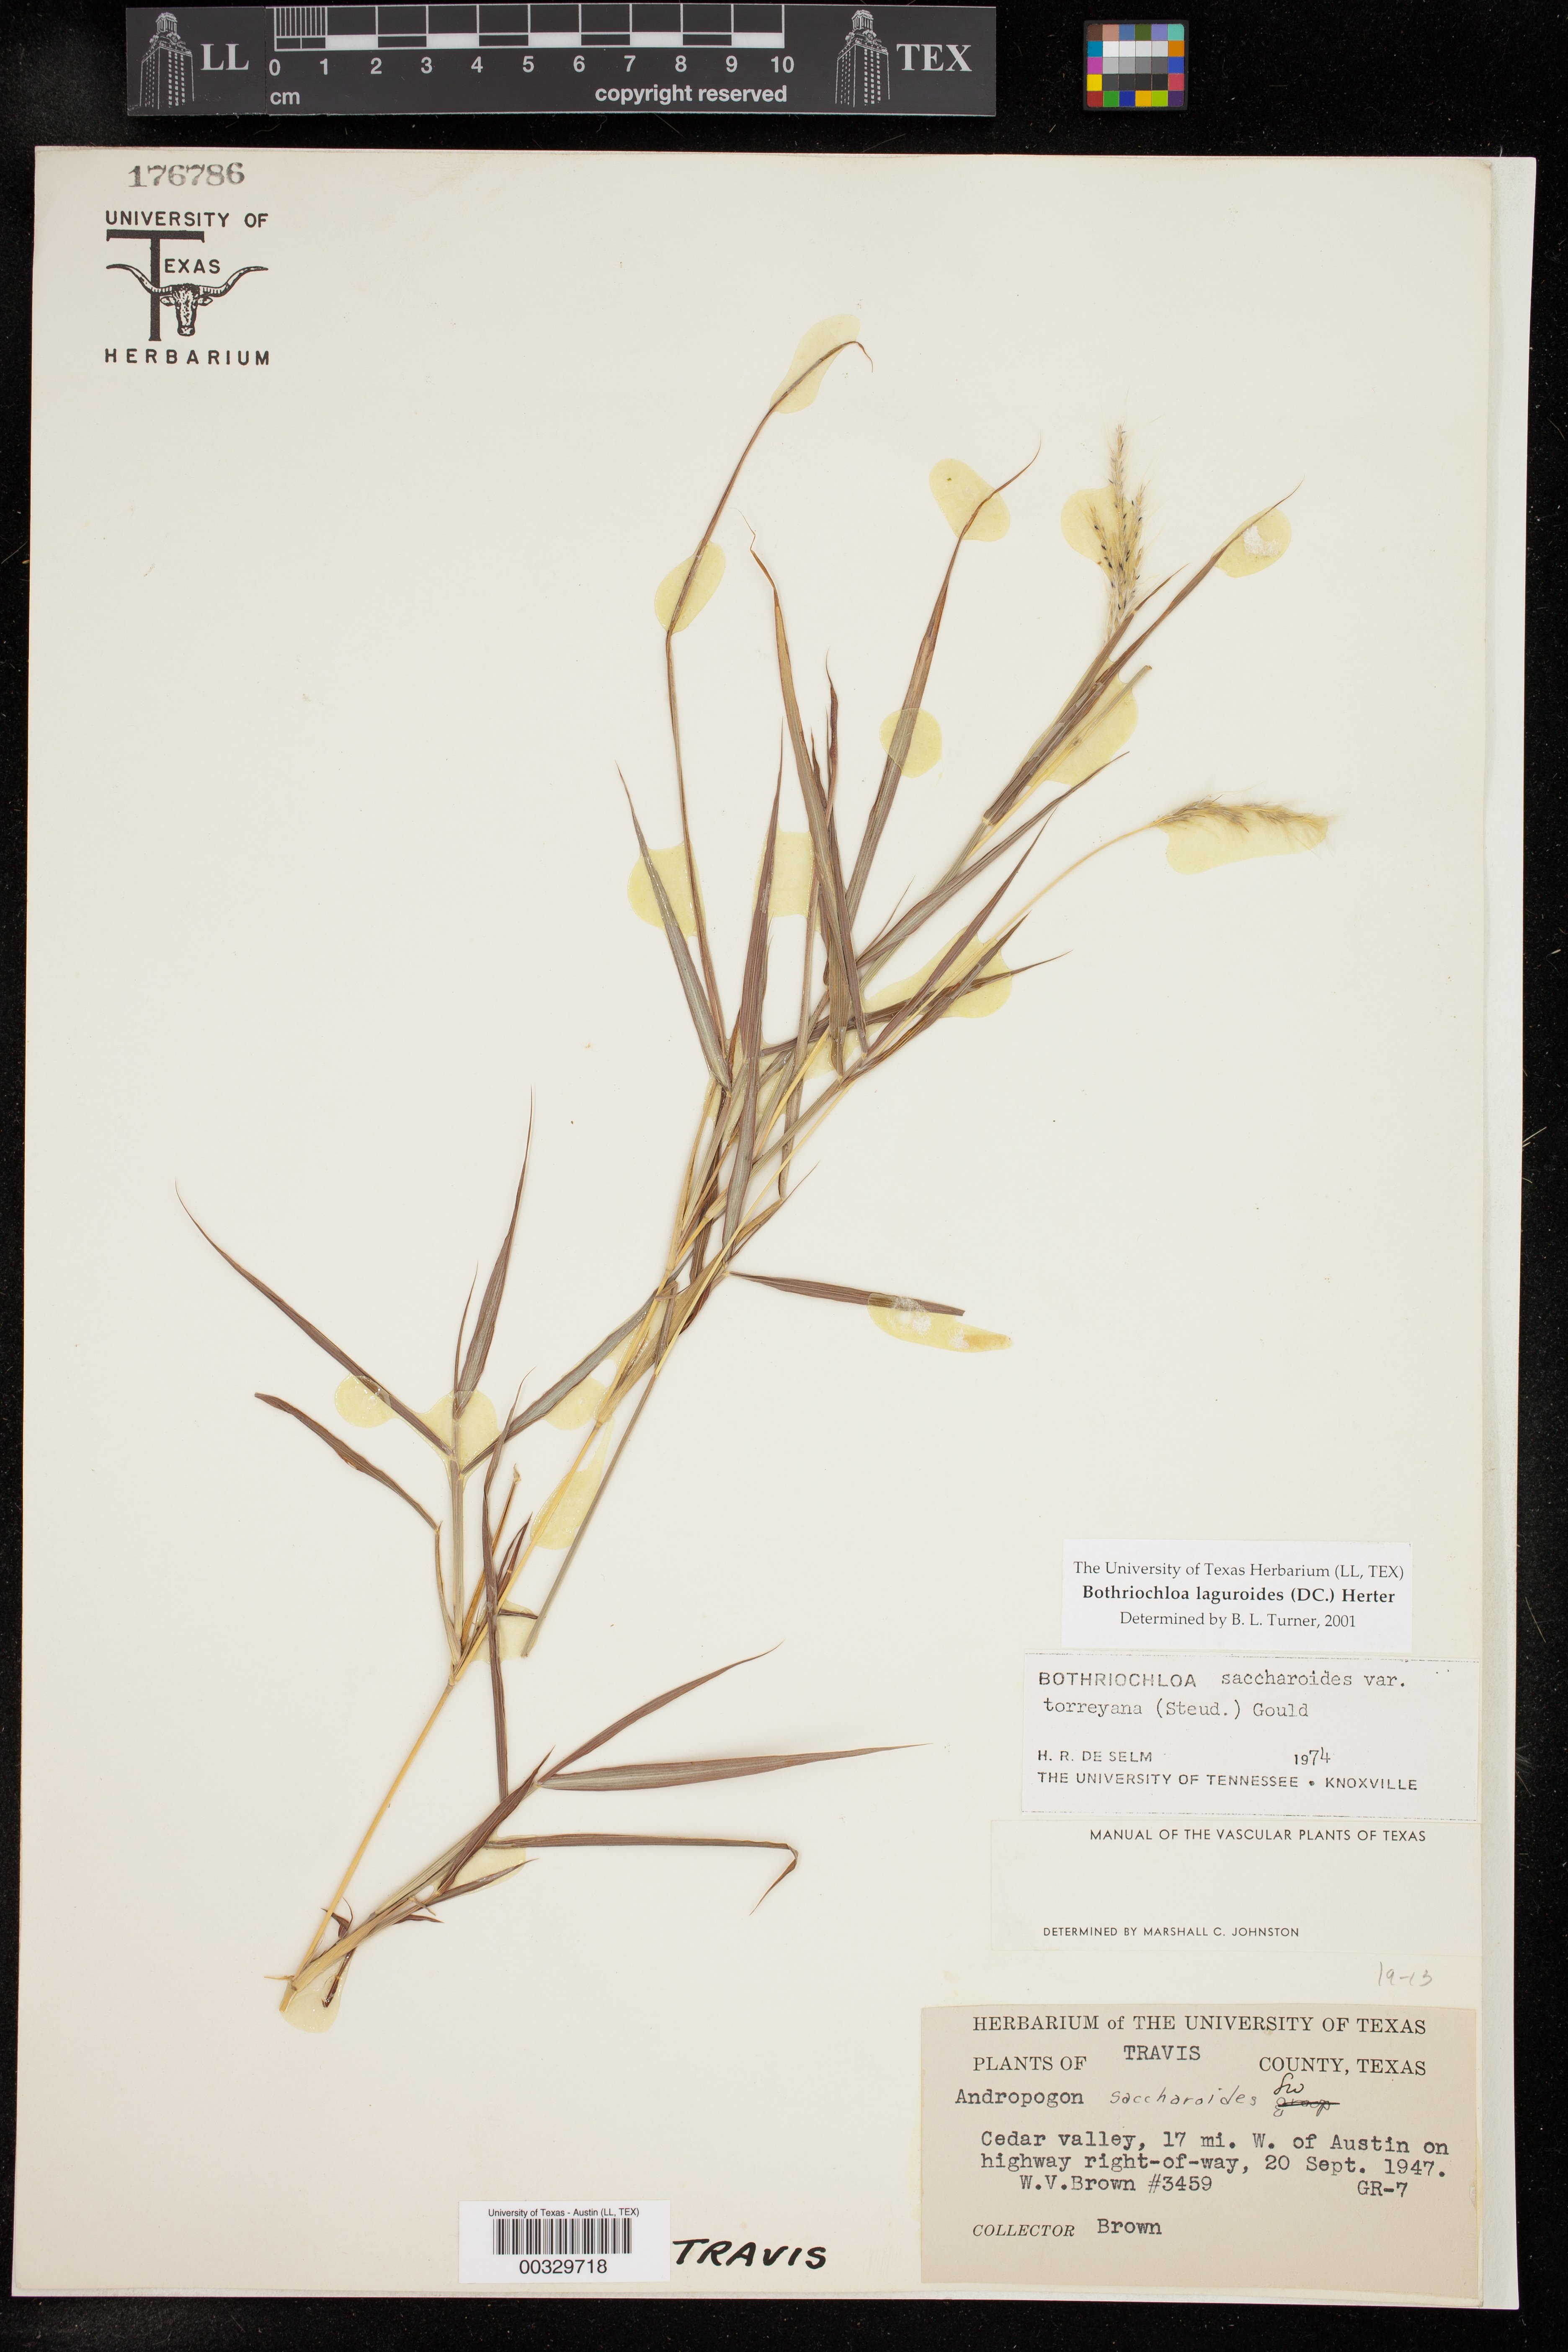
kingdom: Plantae
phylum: Tracheophyta
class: Liliopsida
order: Poales
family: Poaceae
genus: Bothriochloa
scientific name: Bothriochloa laguroides
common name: Silver bluestem
